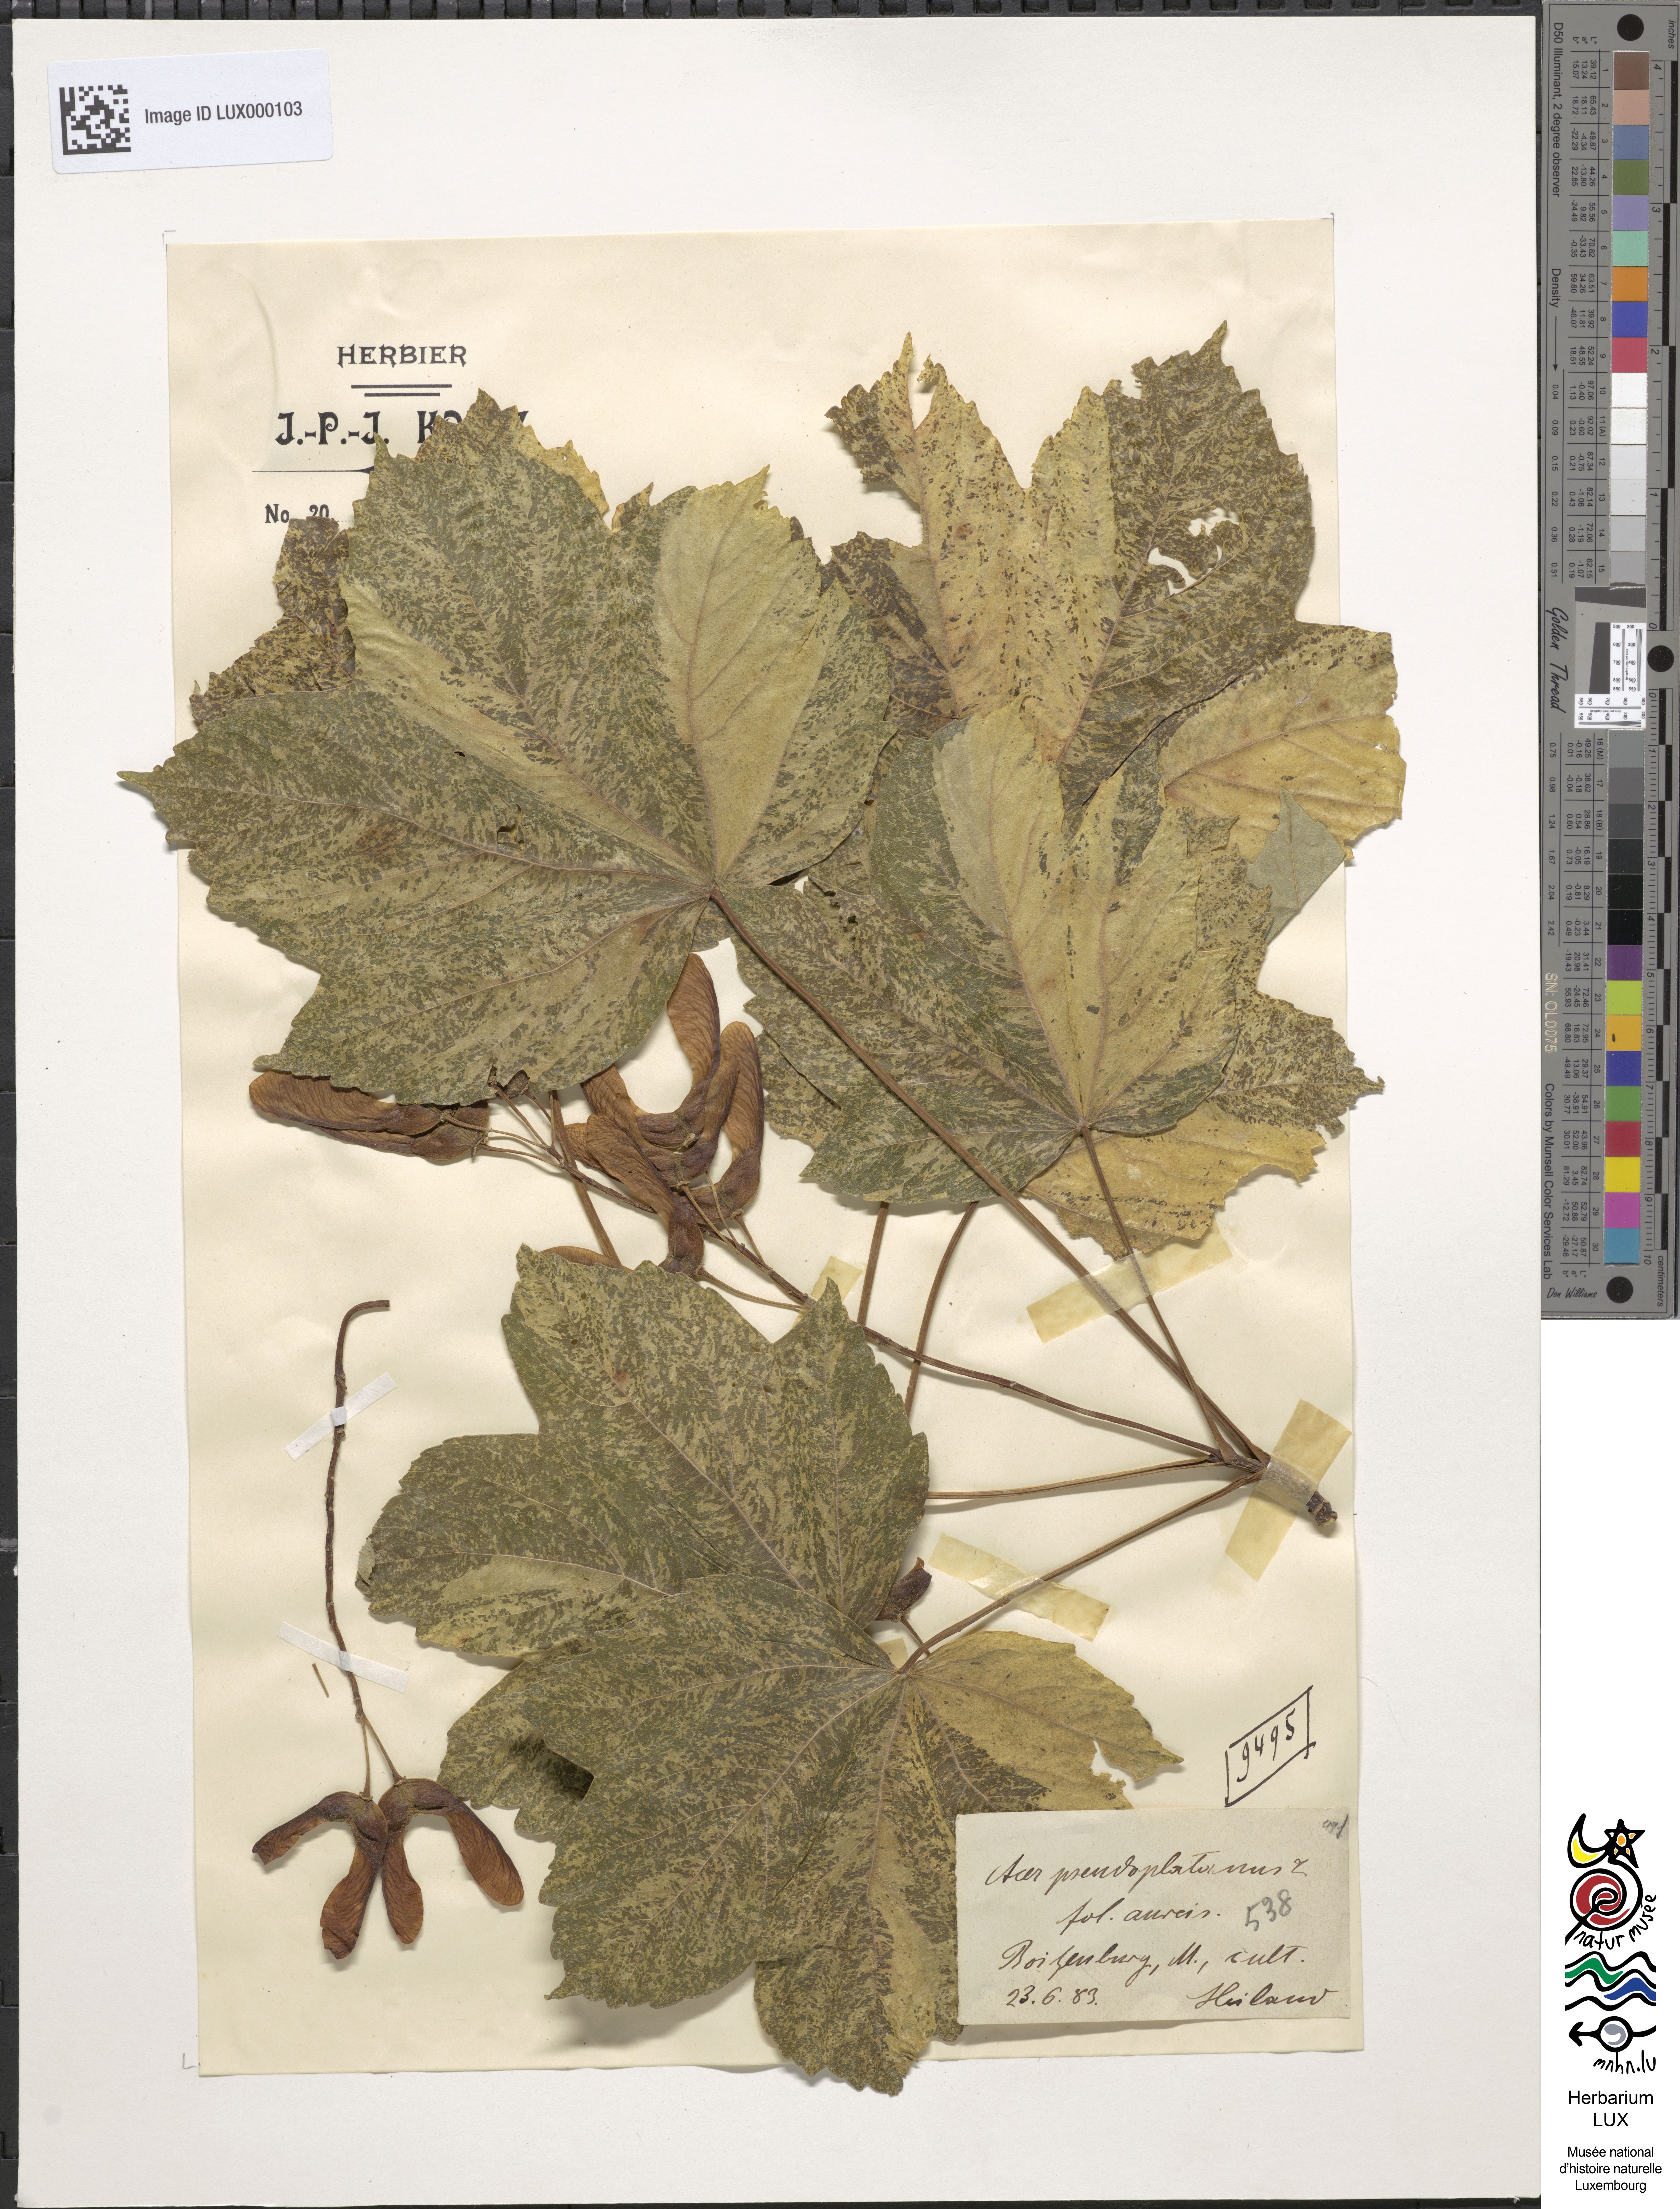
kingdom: Plantae
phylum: Tracheophyta
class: Magnoliopsida
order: Sapindales
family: Sapindaceae
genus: Acer
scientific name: Acer pseudoplatanus
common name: Sycamore
